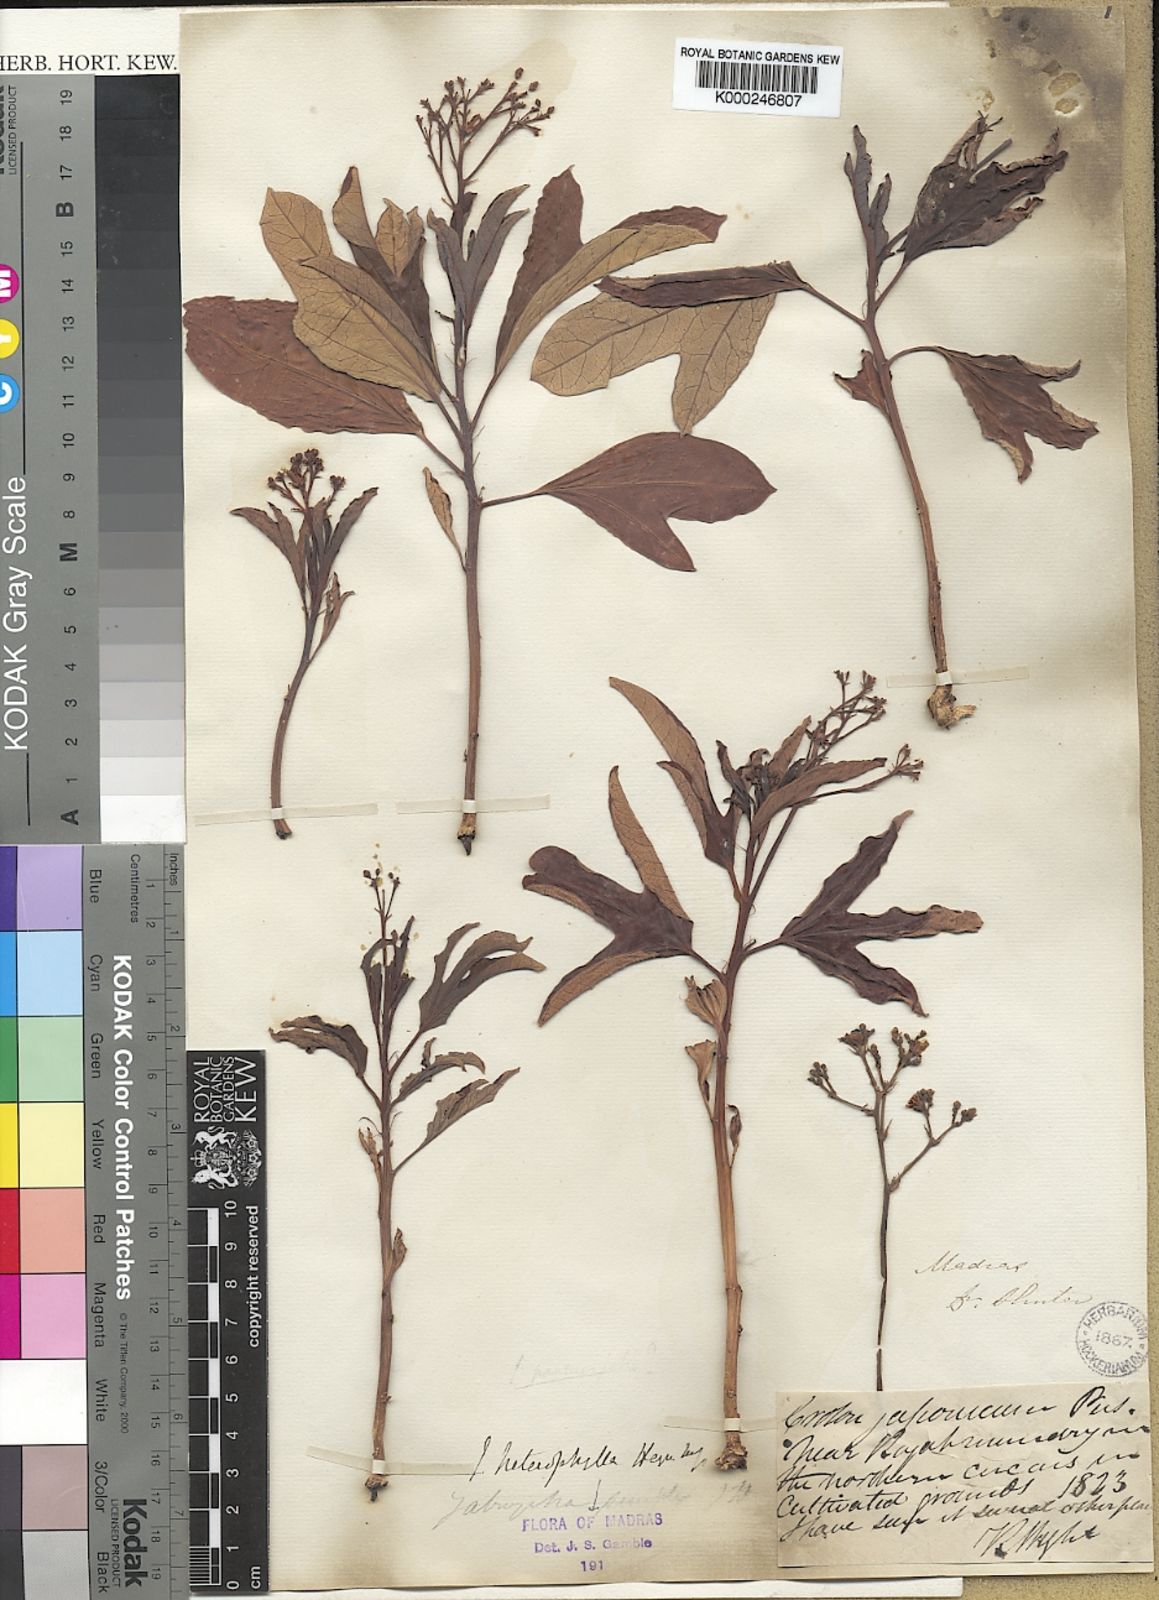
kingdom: Plantae
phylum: Tracheophyta
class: Magnoliopsida
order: Malpighiales
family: Euphorbiaceae
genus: Jatropha
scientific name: Jatropha heynei
